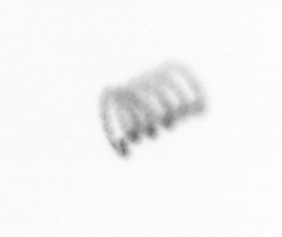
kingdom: Chromista
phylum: Ochrophyta
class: Bacillariophyceae
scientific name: Bacillariophyceae
